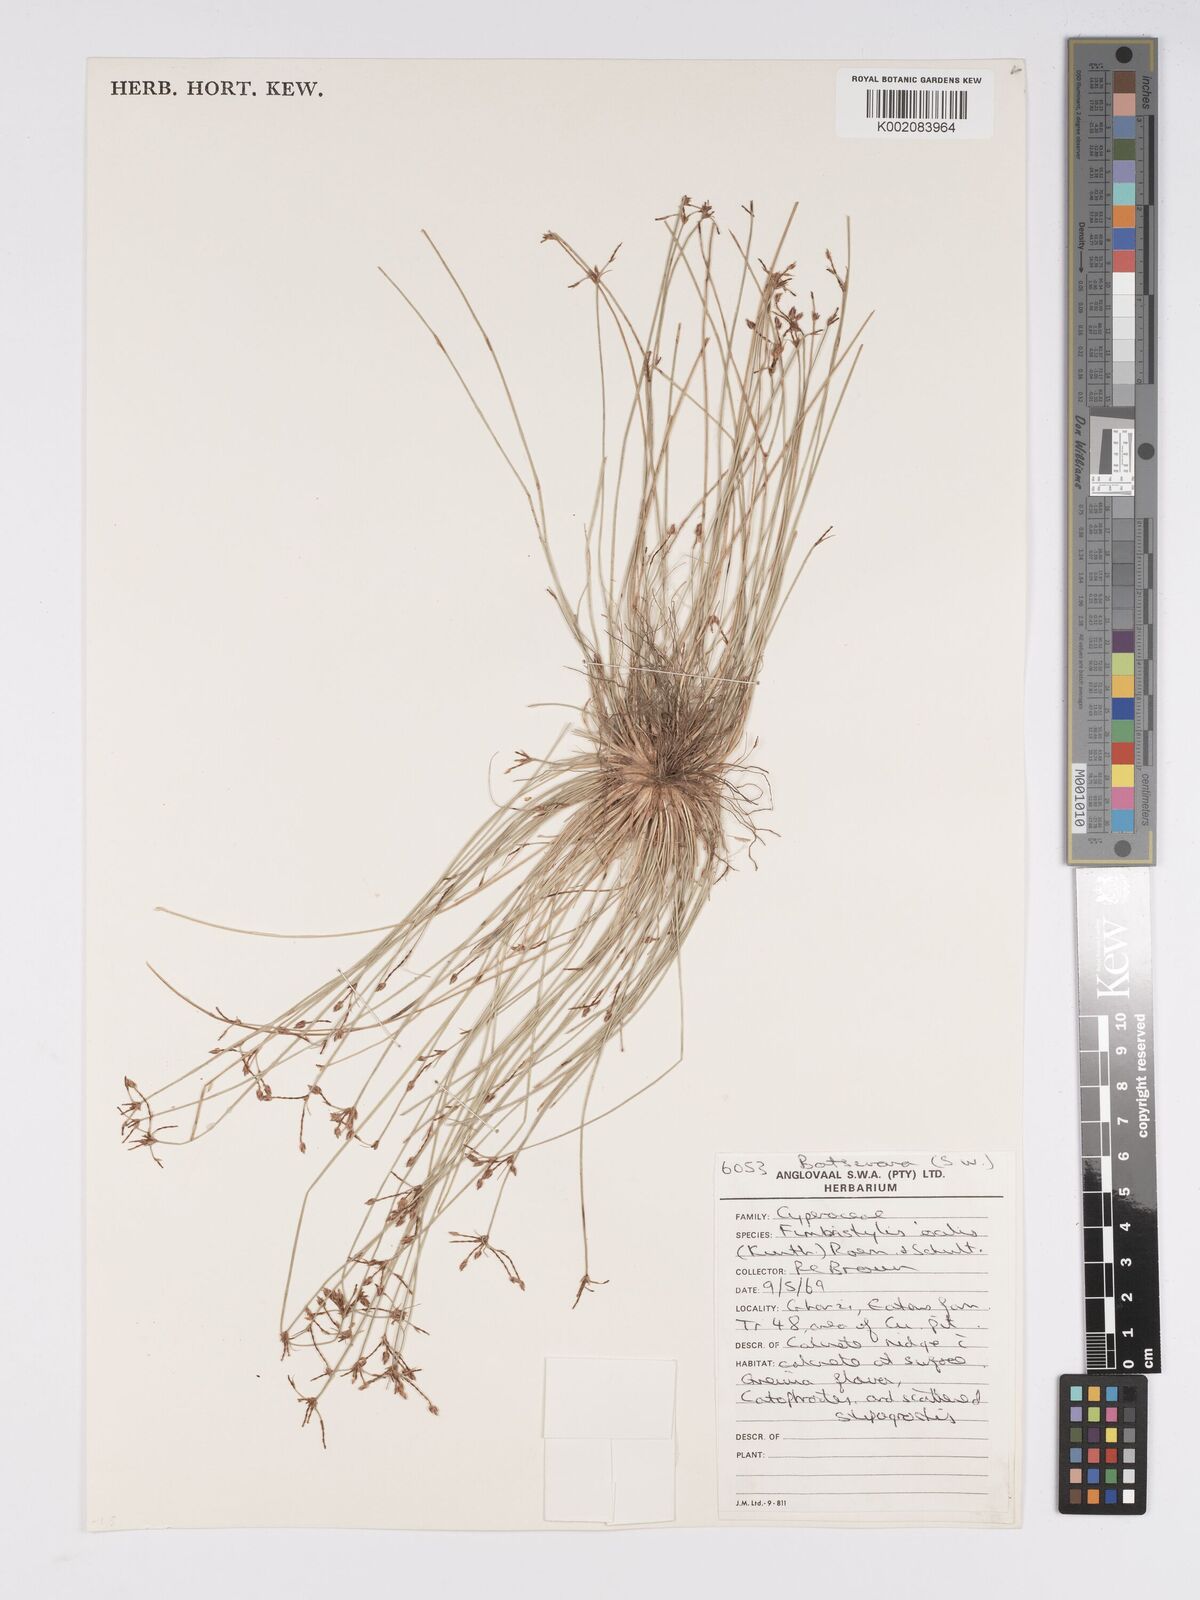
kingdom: Plantae
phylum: Tracheophyta
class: Liliopsida
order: Poales
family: Cyperaceae
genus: Bulbostylis
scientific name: Bulbostylis hispidula
